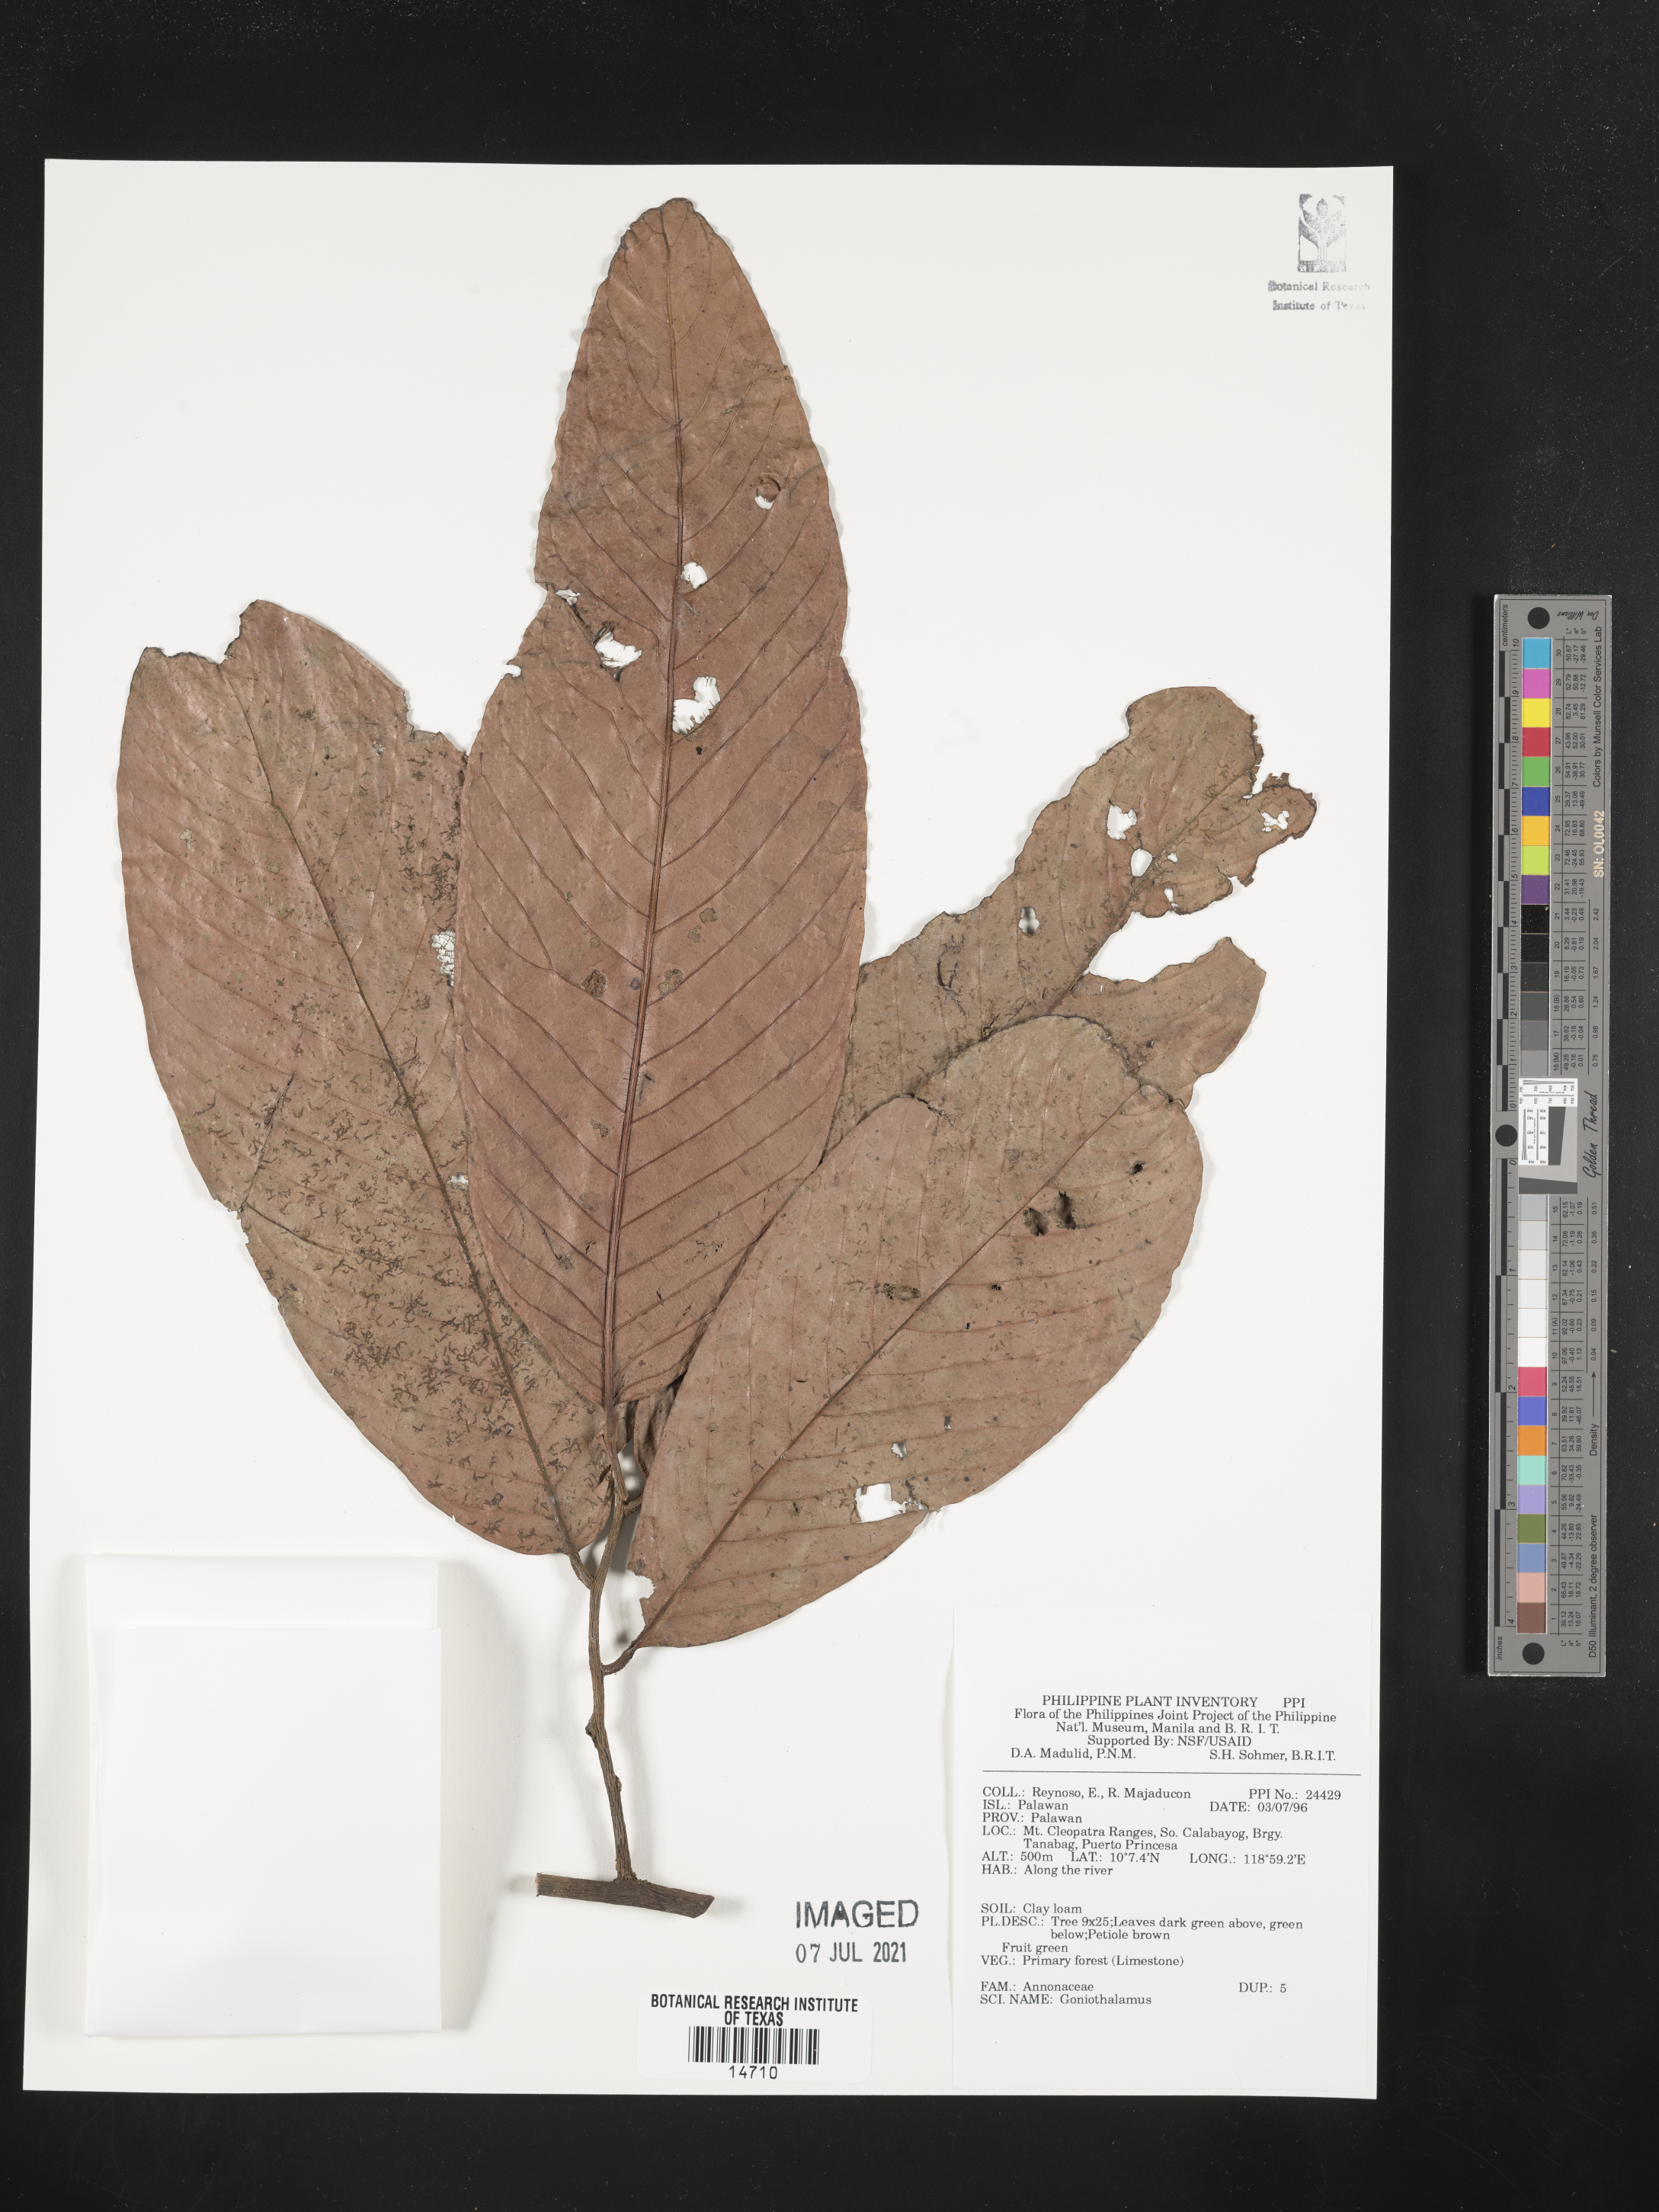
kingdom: Plantae
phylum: Tracheophyta
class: Magnoliopsida
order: Magnoliales
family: Annonaceae
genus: Goniothalamus
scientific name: Goniothalamus
